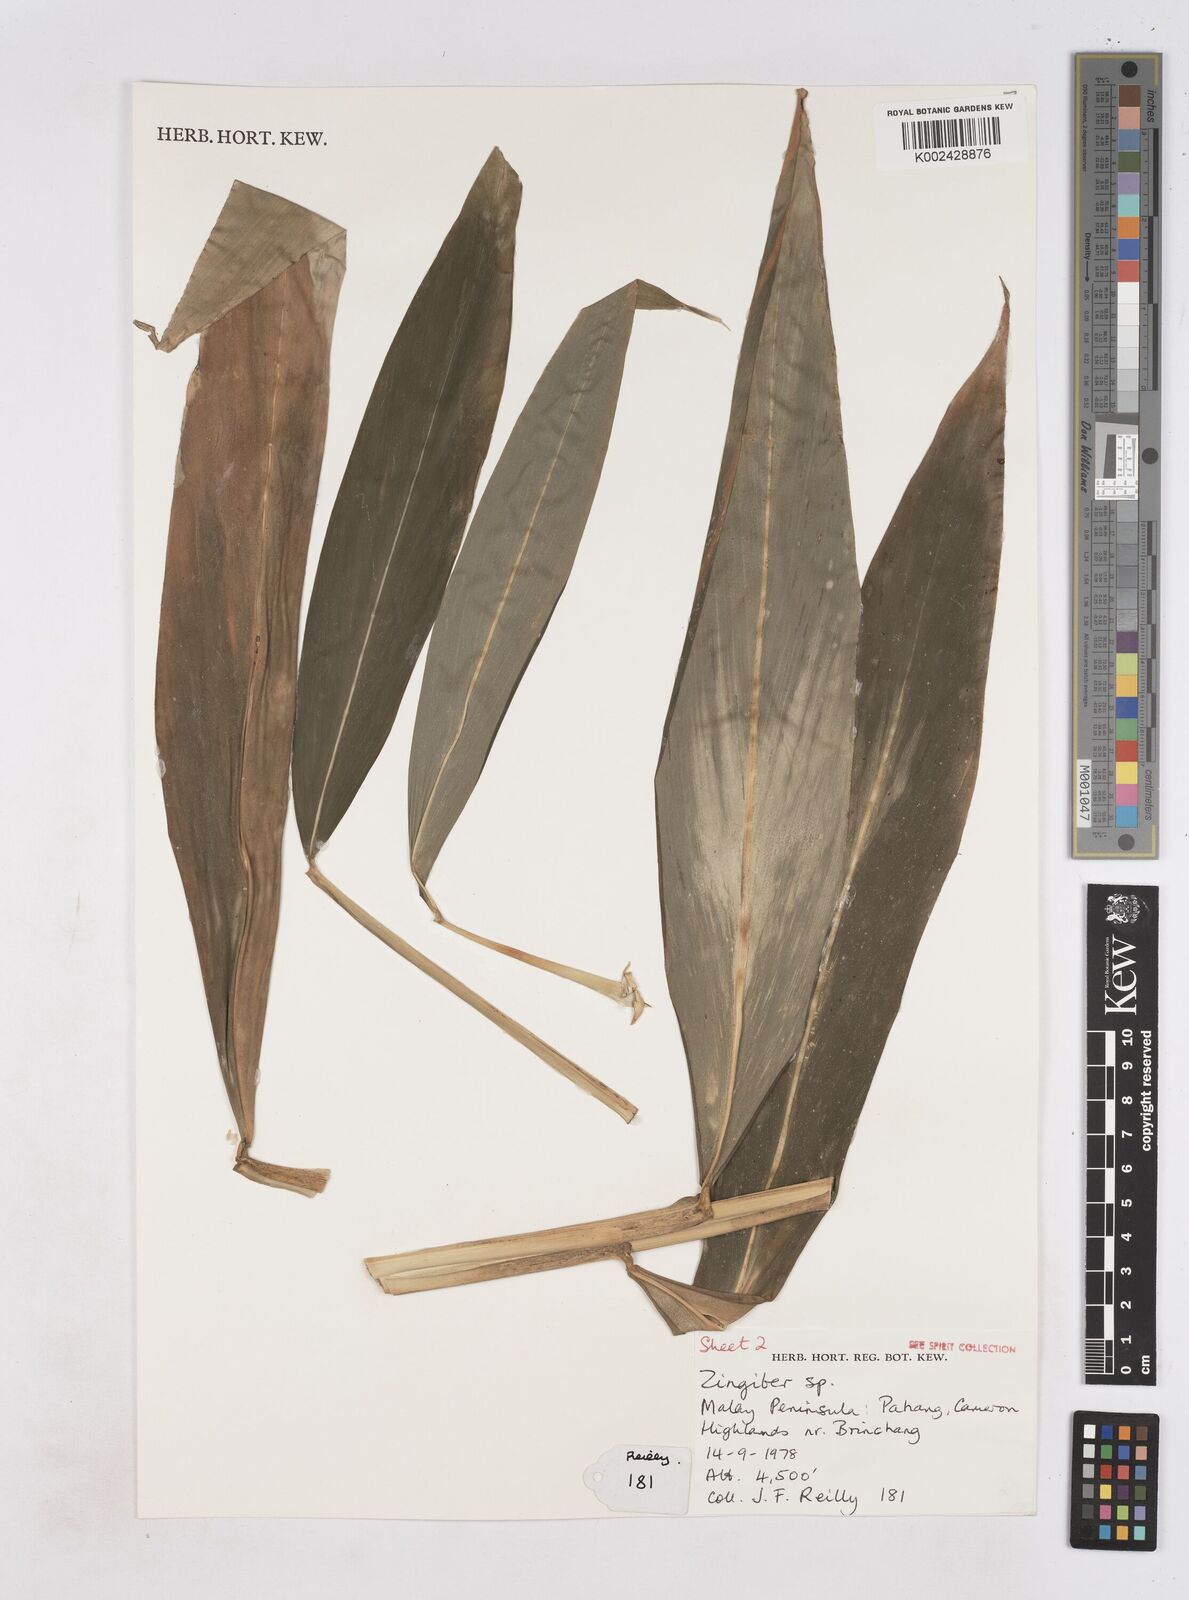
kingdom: Plantae
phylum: Tracheophyta
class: Liliopsida
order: Zingiberales
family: Zingiberaceae
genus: Zingiber
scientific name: Zingiber
